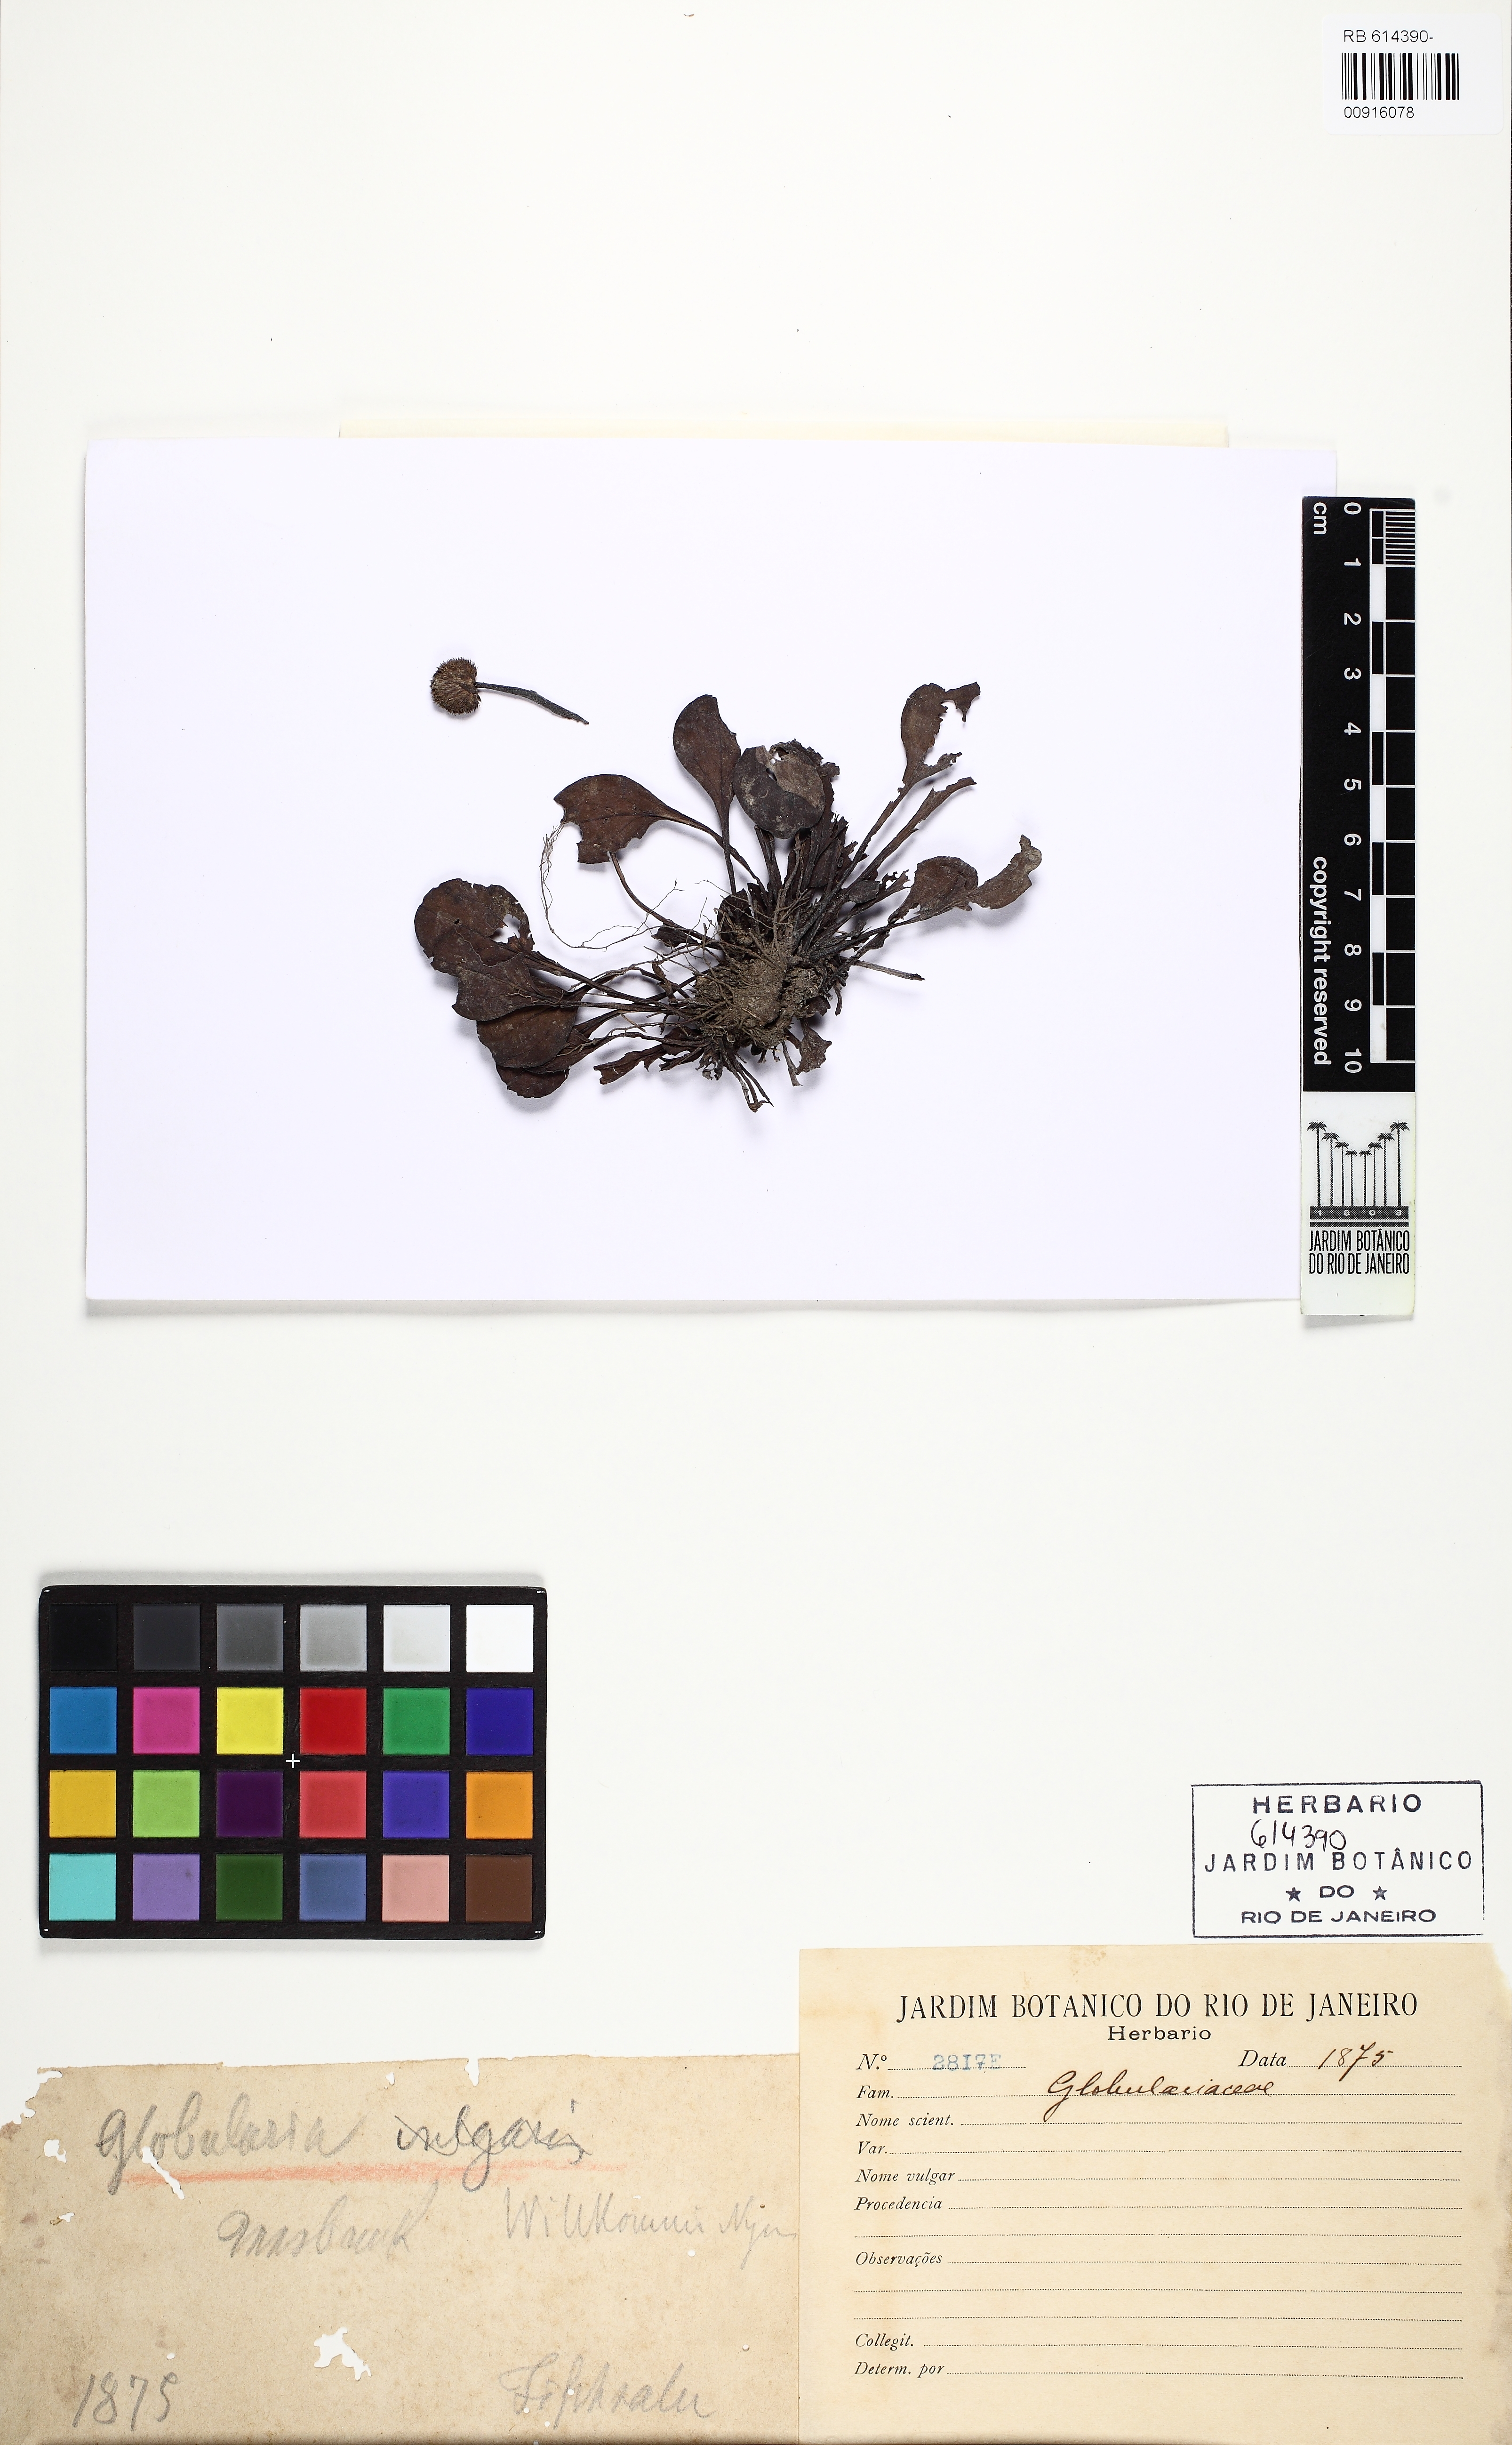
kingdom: Plantae
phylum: Tracheophyta
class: Magnoliopsida
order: Lamiales
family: Plantaginaceae
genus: Globularia
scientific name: Globularia bisnagarica
